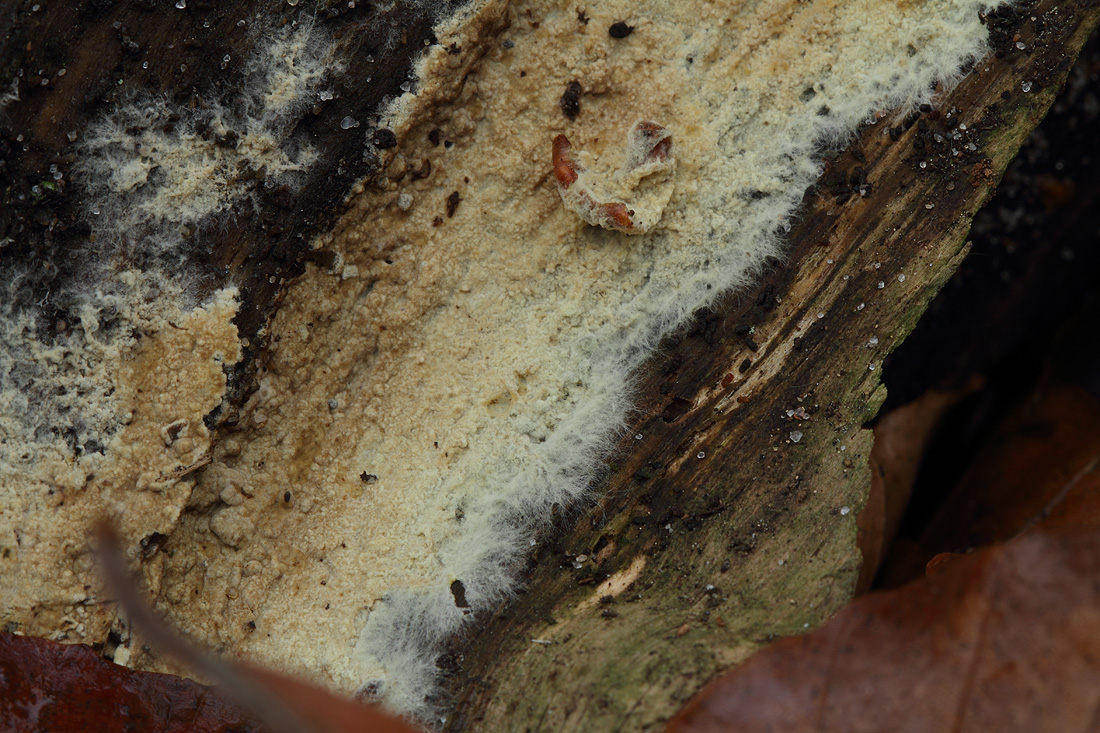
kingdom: Fungi
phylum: Basidiomycota
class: Agaricomycetes
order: Boletales
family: Coniophoraceae
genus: Coniophora
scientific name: Coniophora arida
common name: tynd tømmersvamp
